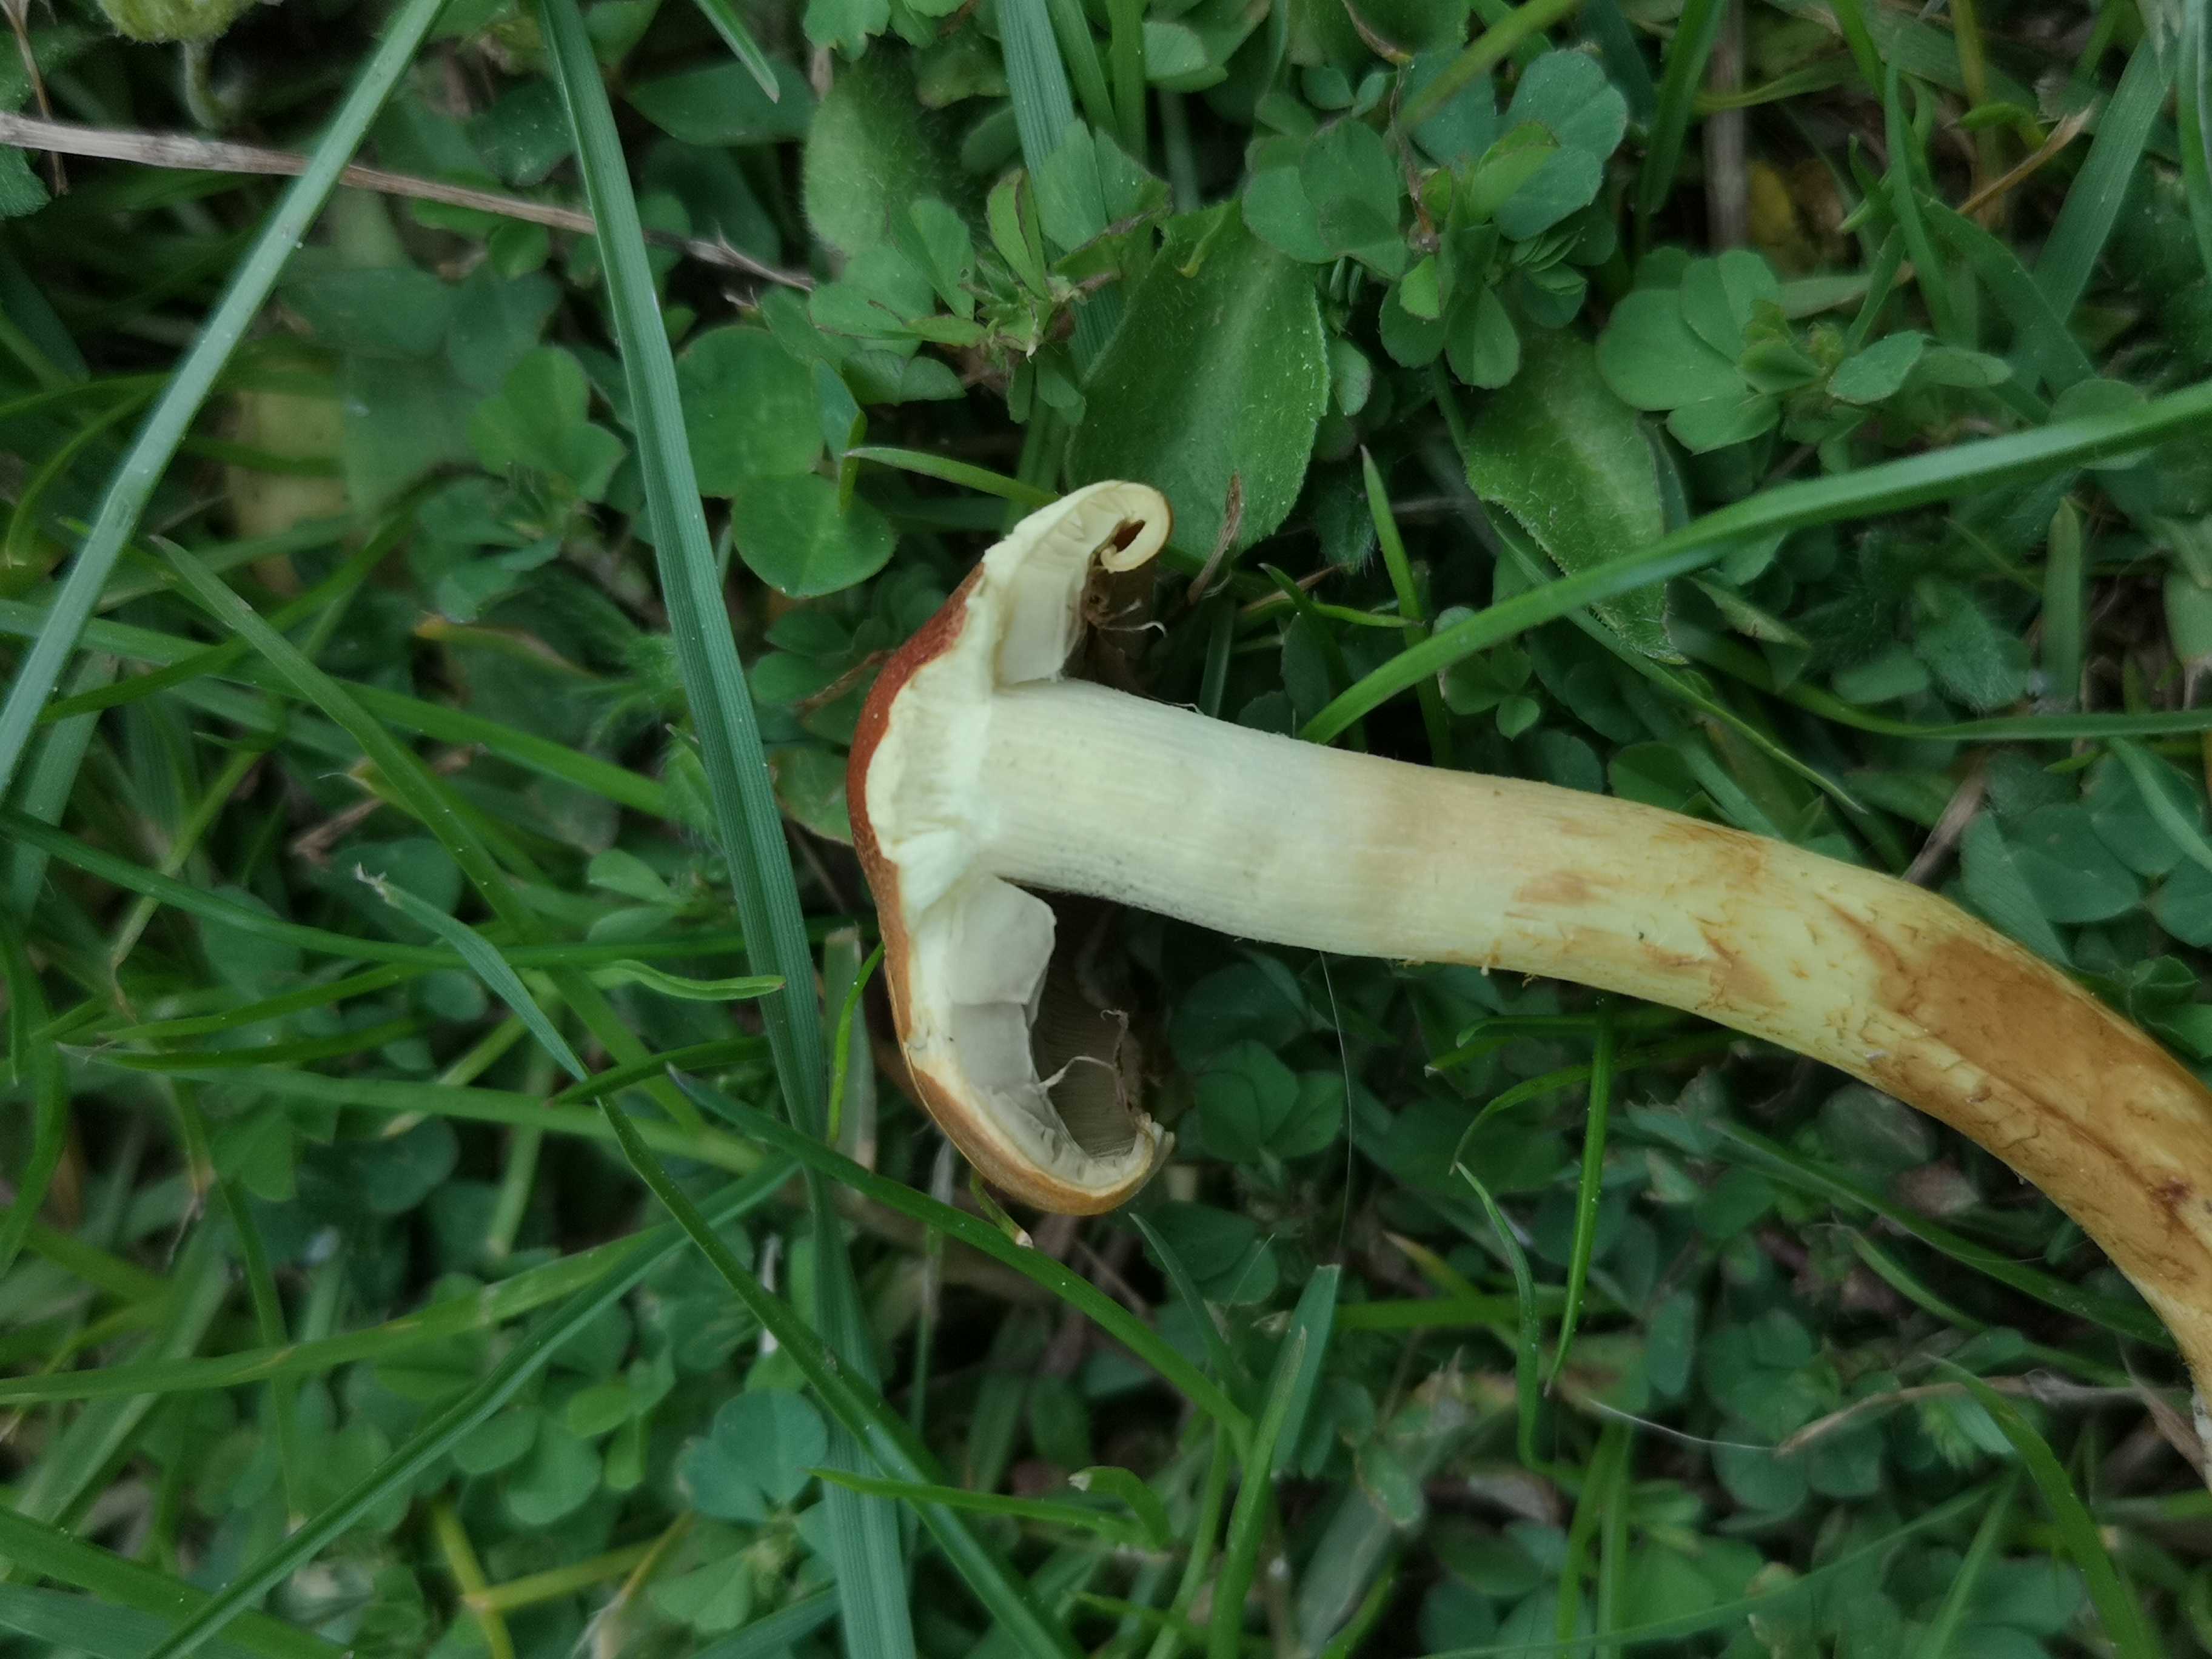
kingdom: Fungi
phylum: Basidiomycota
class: Agaricomycetes
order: Agaricales
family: Strophariaceae
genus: Hypholoma
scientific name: Hypholoma fasciculare
